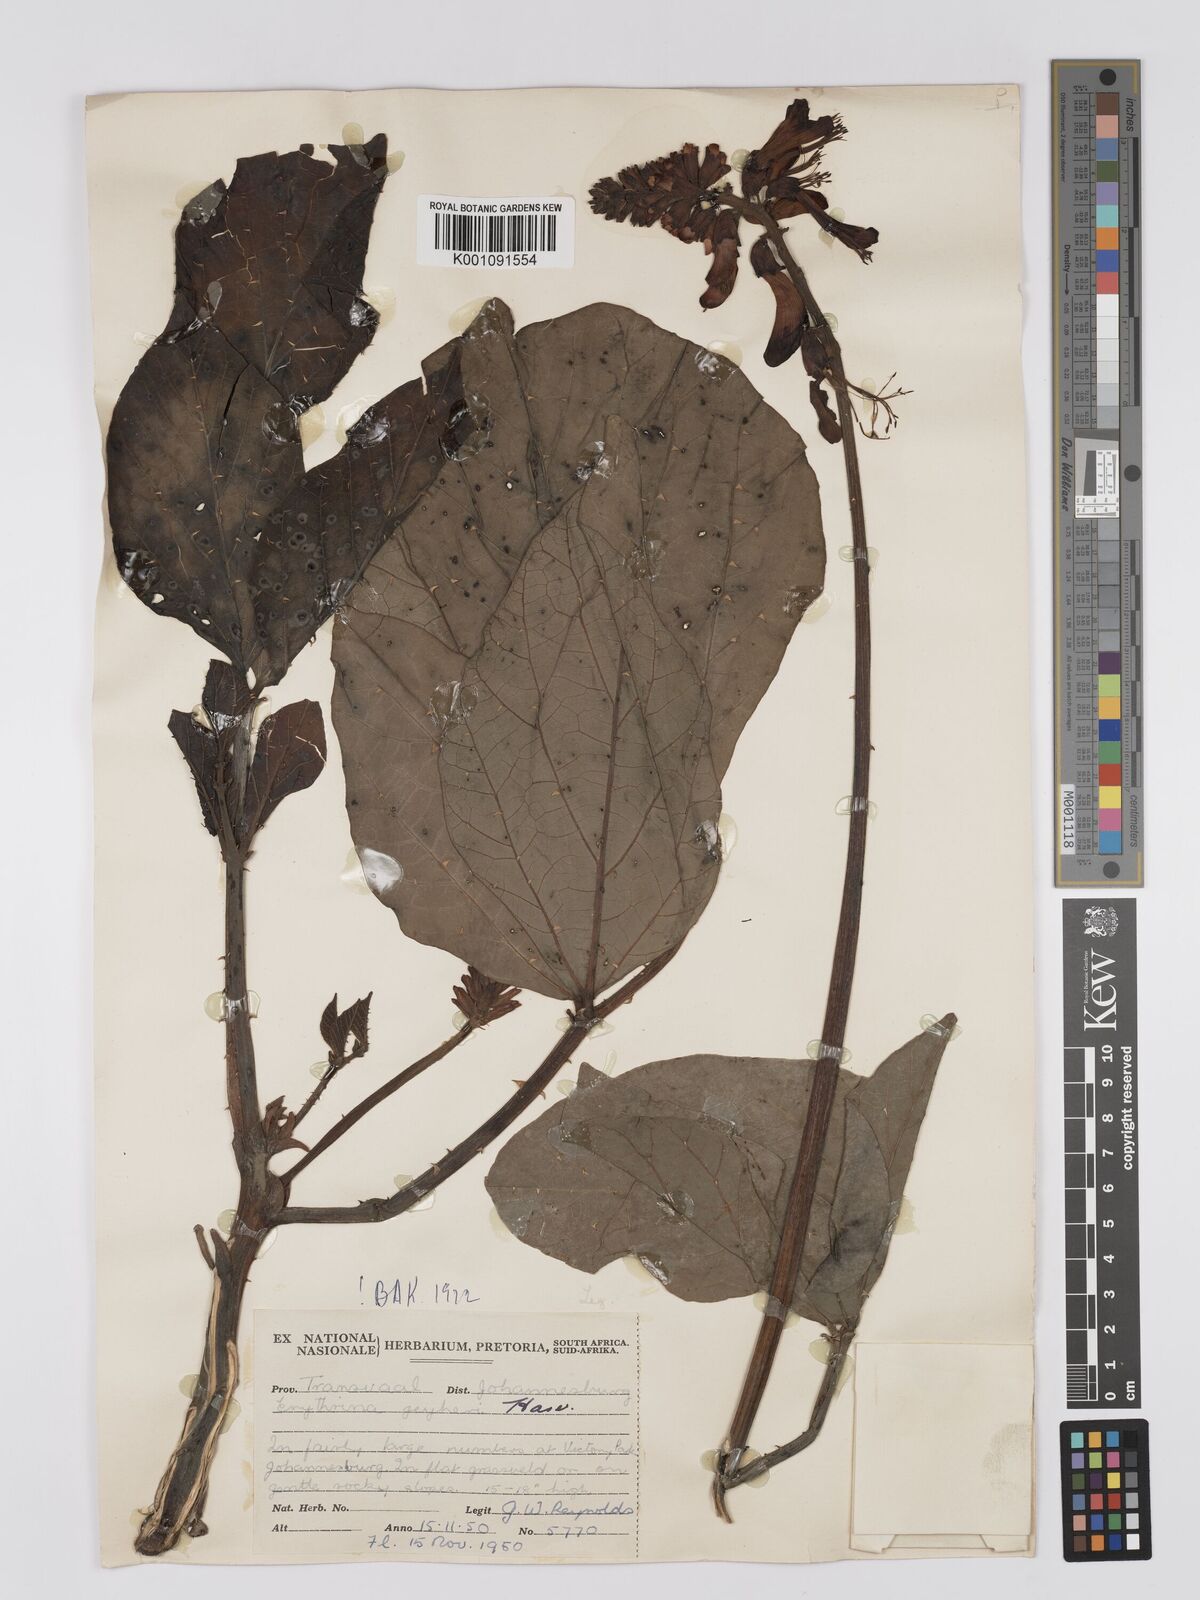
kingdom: Plantae
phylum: Tracheophyta
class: Magnoliopsida
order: Fabales
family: Fabaceae
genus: Erythrina
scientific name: Erythrina zeyheri
